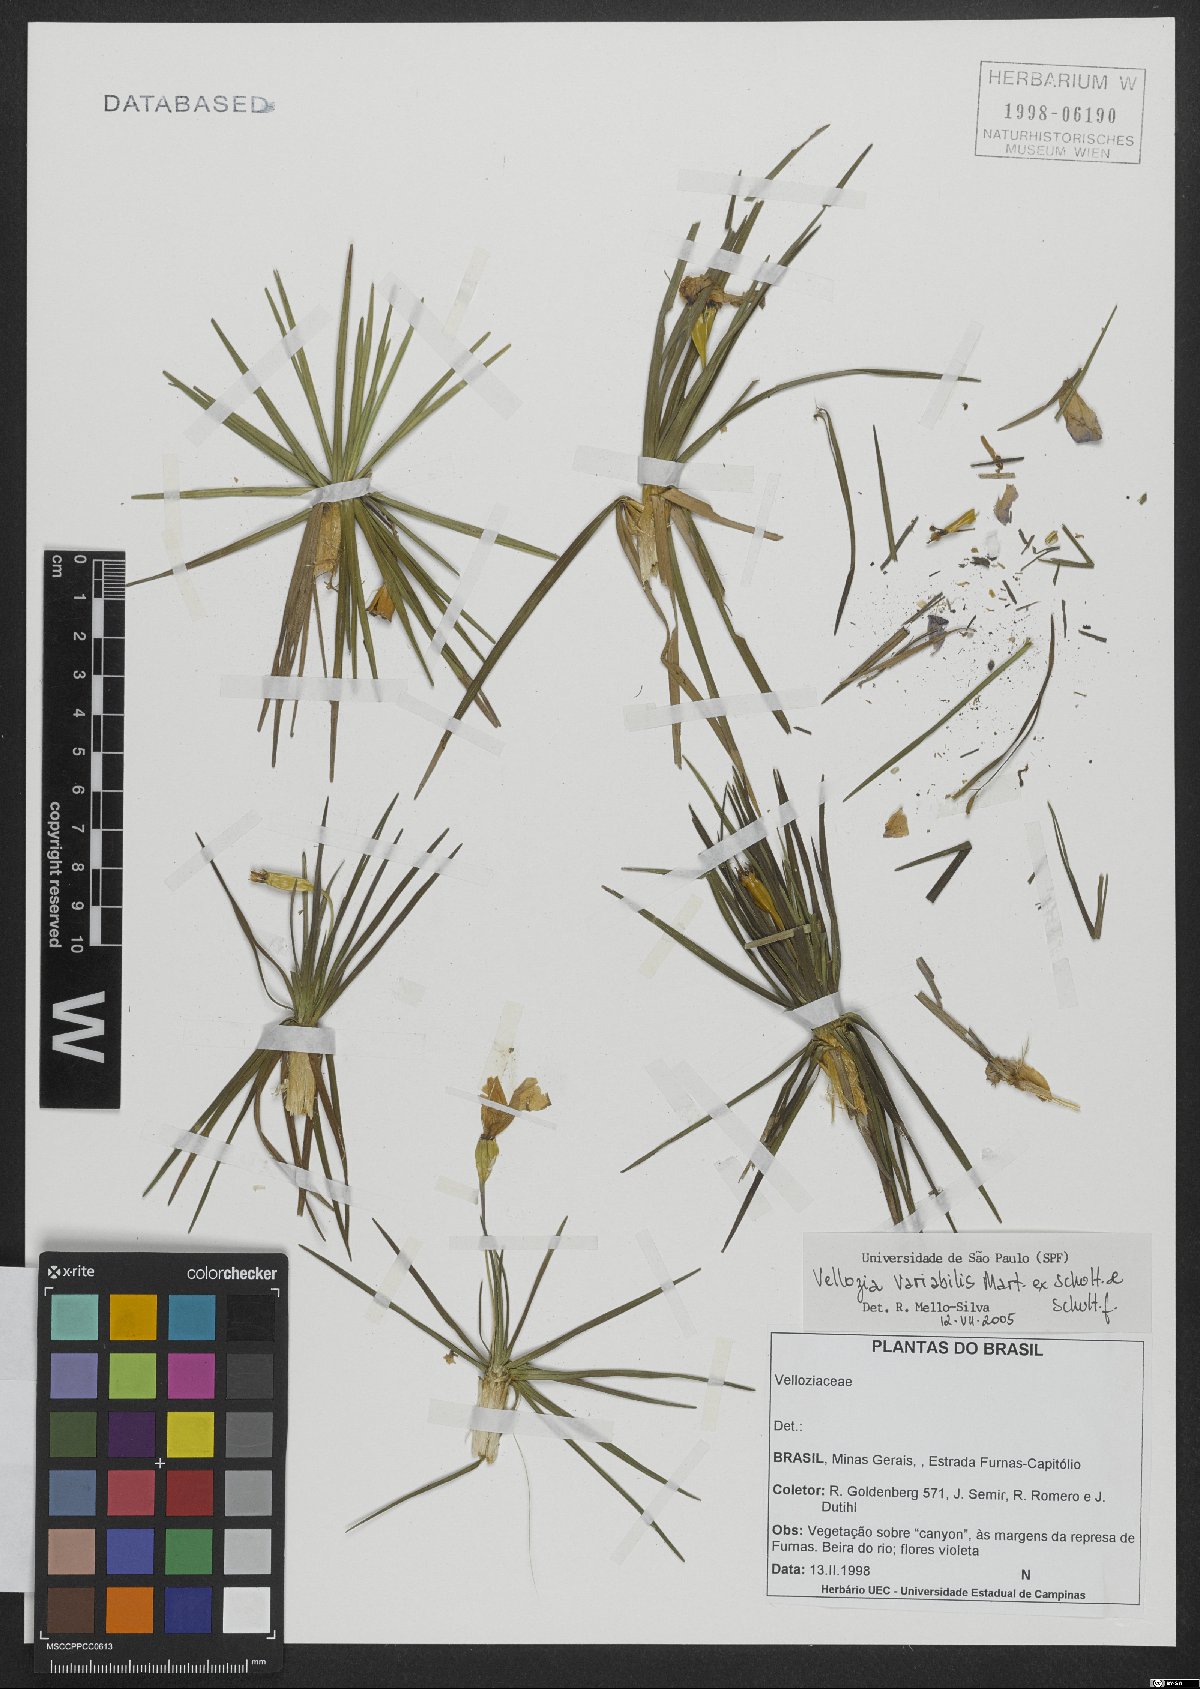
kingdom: Plantae
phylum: Tracheophyta
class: Liliopsida
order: Pandanales
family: Velloziaceae
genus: Vellozia
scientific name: Vellozia variabilis
